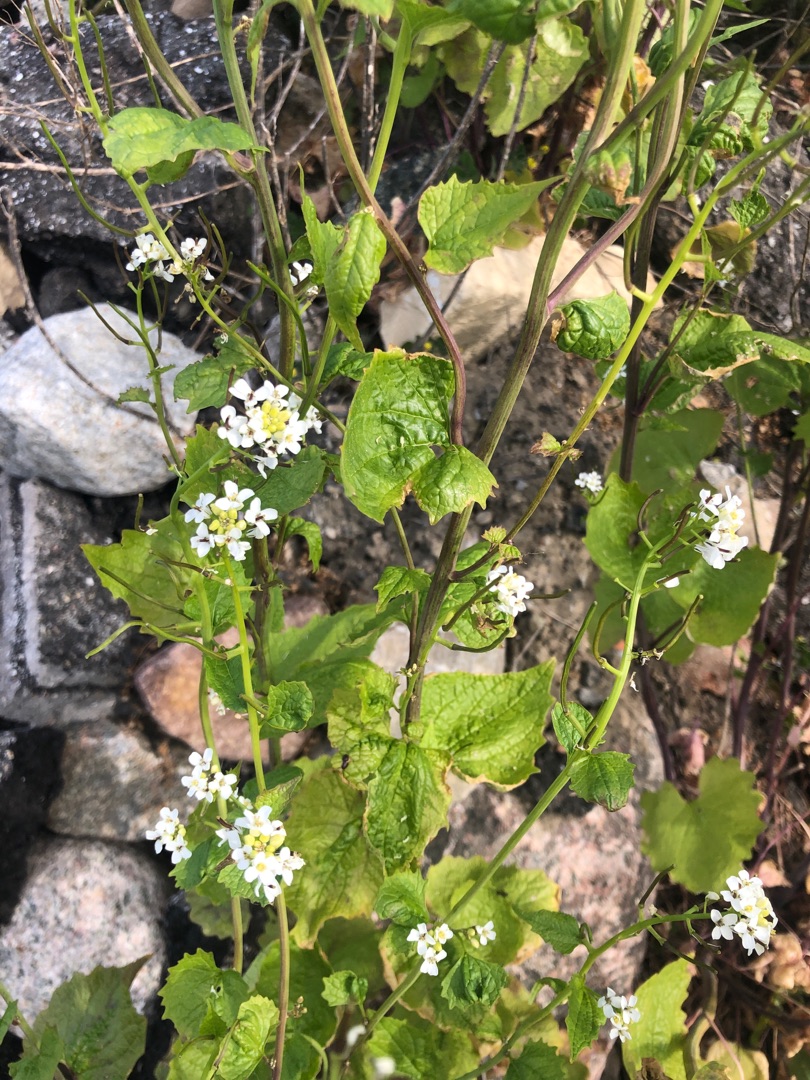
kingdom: Plantae
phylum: Tracheophyta
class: Magnoliopsida
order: Brassicales
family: Brassicaceae
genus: Alliaria
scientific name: Alliaria petiolata
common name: Løgkarse
